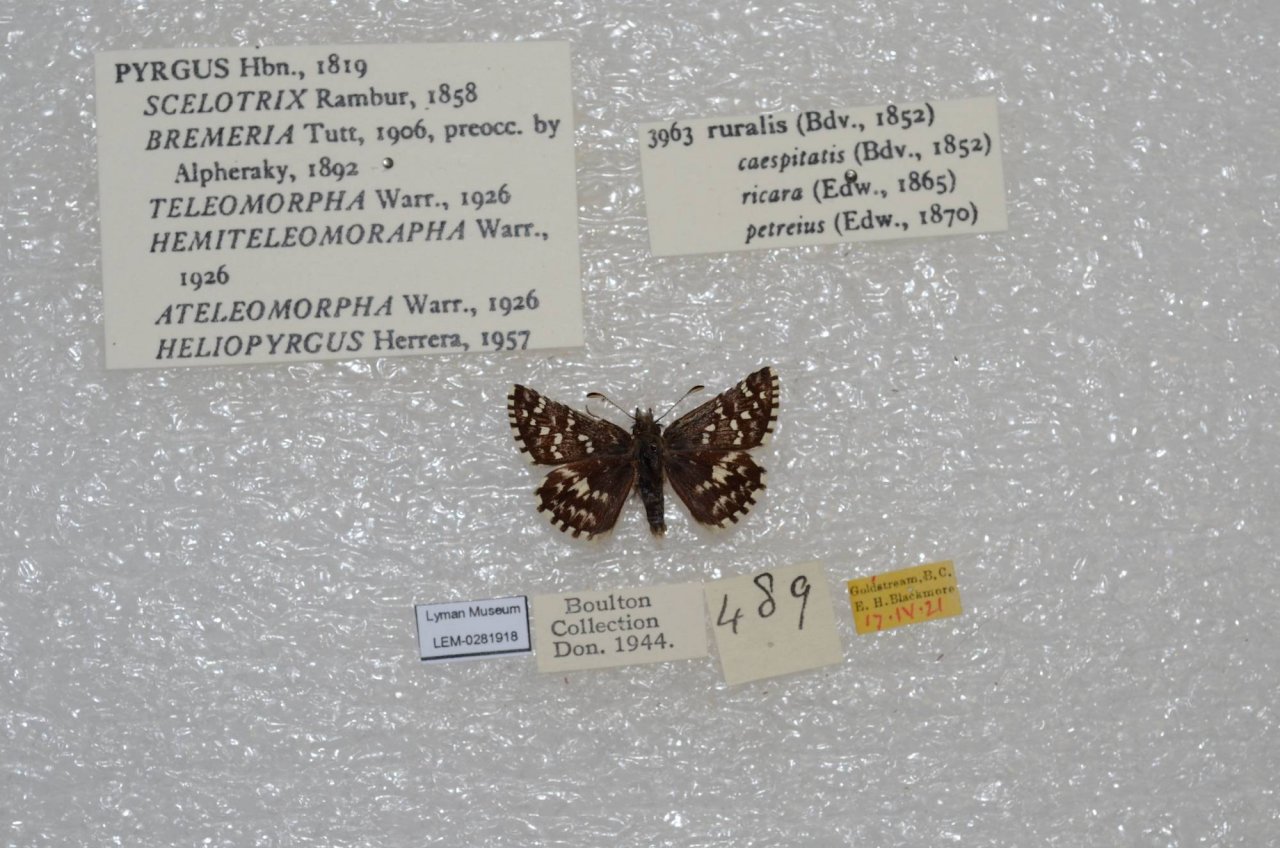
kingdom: Animalia
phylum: Arthropoda
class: Insecta
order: Lepidoptera
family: Hesperiidae
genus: Pyrgus
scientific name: Pyrgus ruralis
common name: Two-banded Checkered-Skipper
